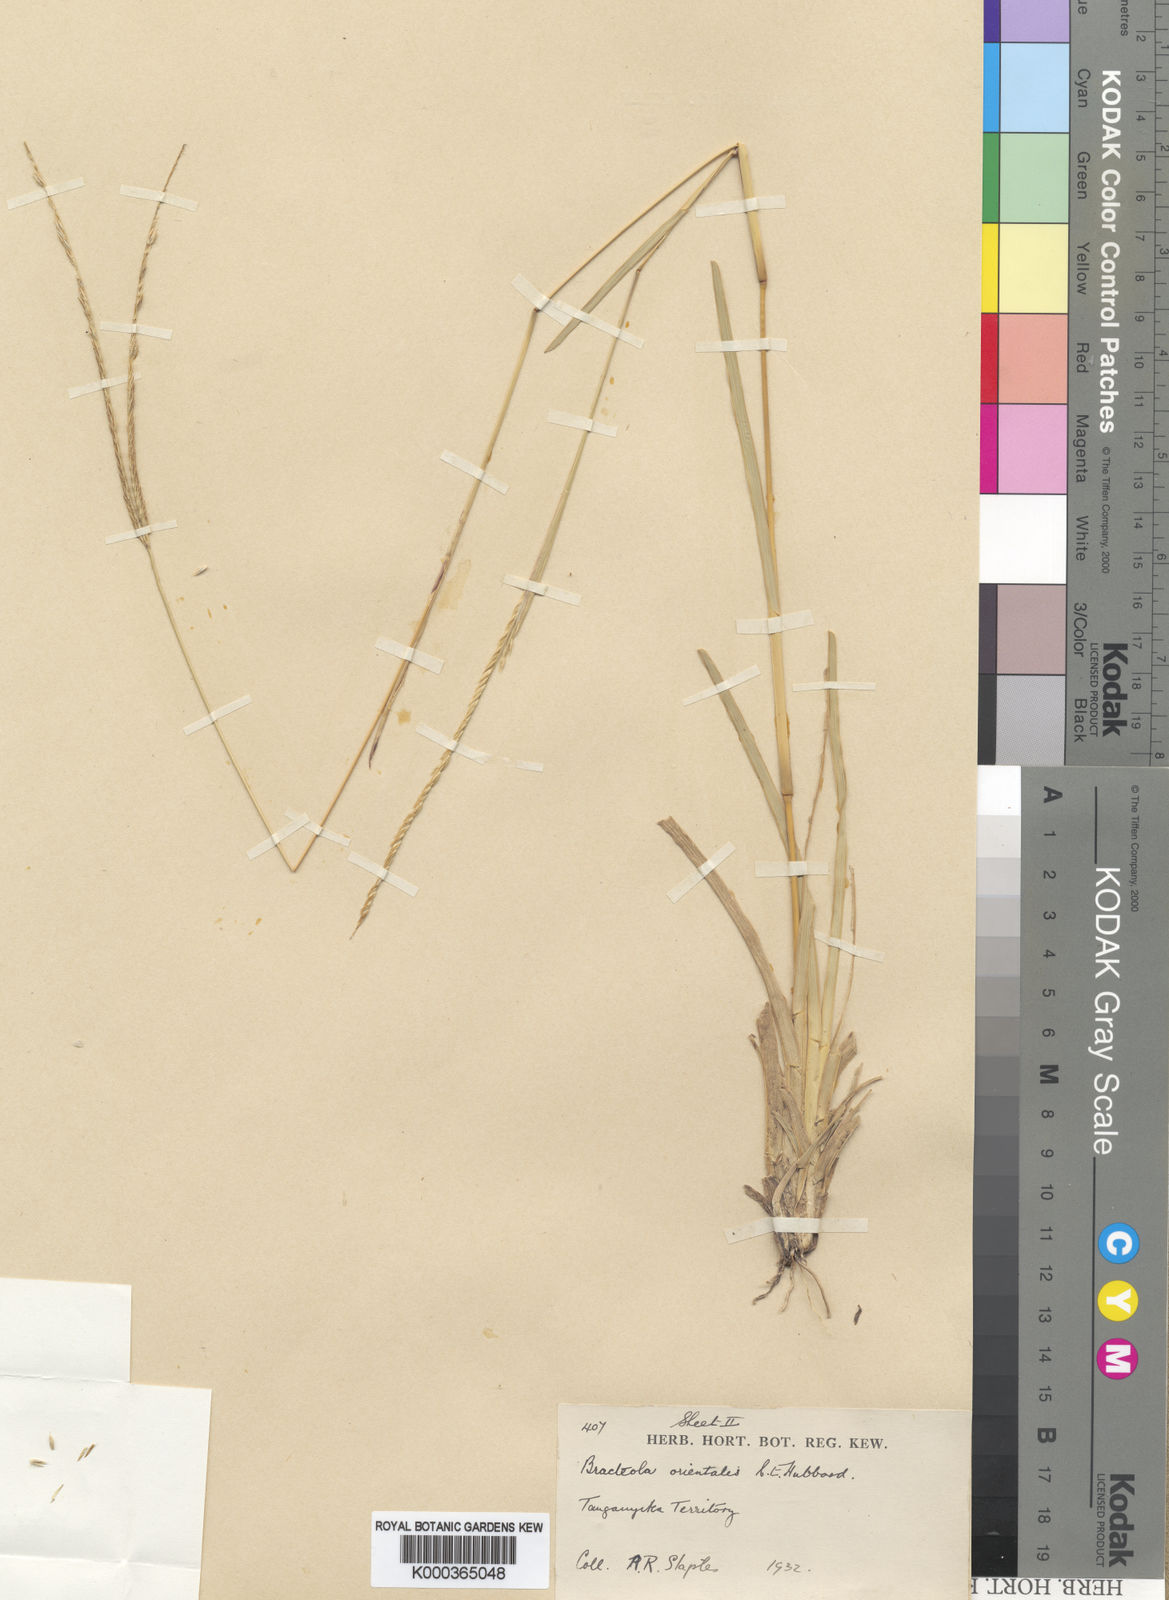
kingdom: Plantae
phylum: Tracheophyta
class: Liliopsida
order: Poales
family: Poaceae
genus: Chrysochloa
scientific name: Chrysochloa orientalis
